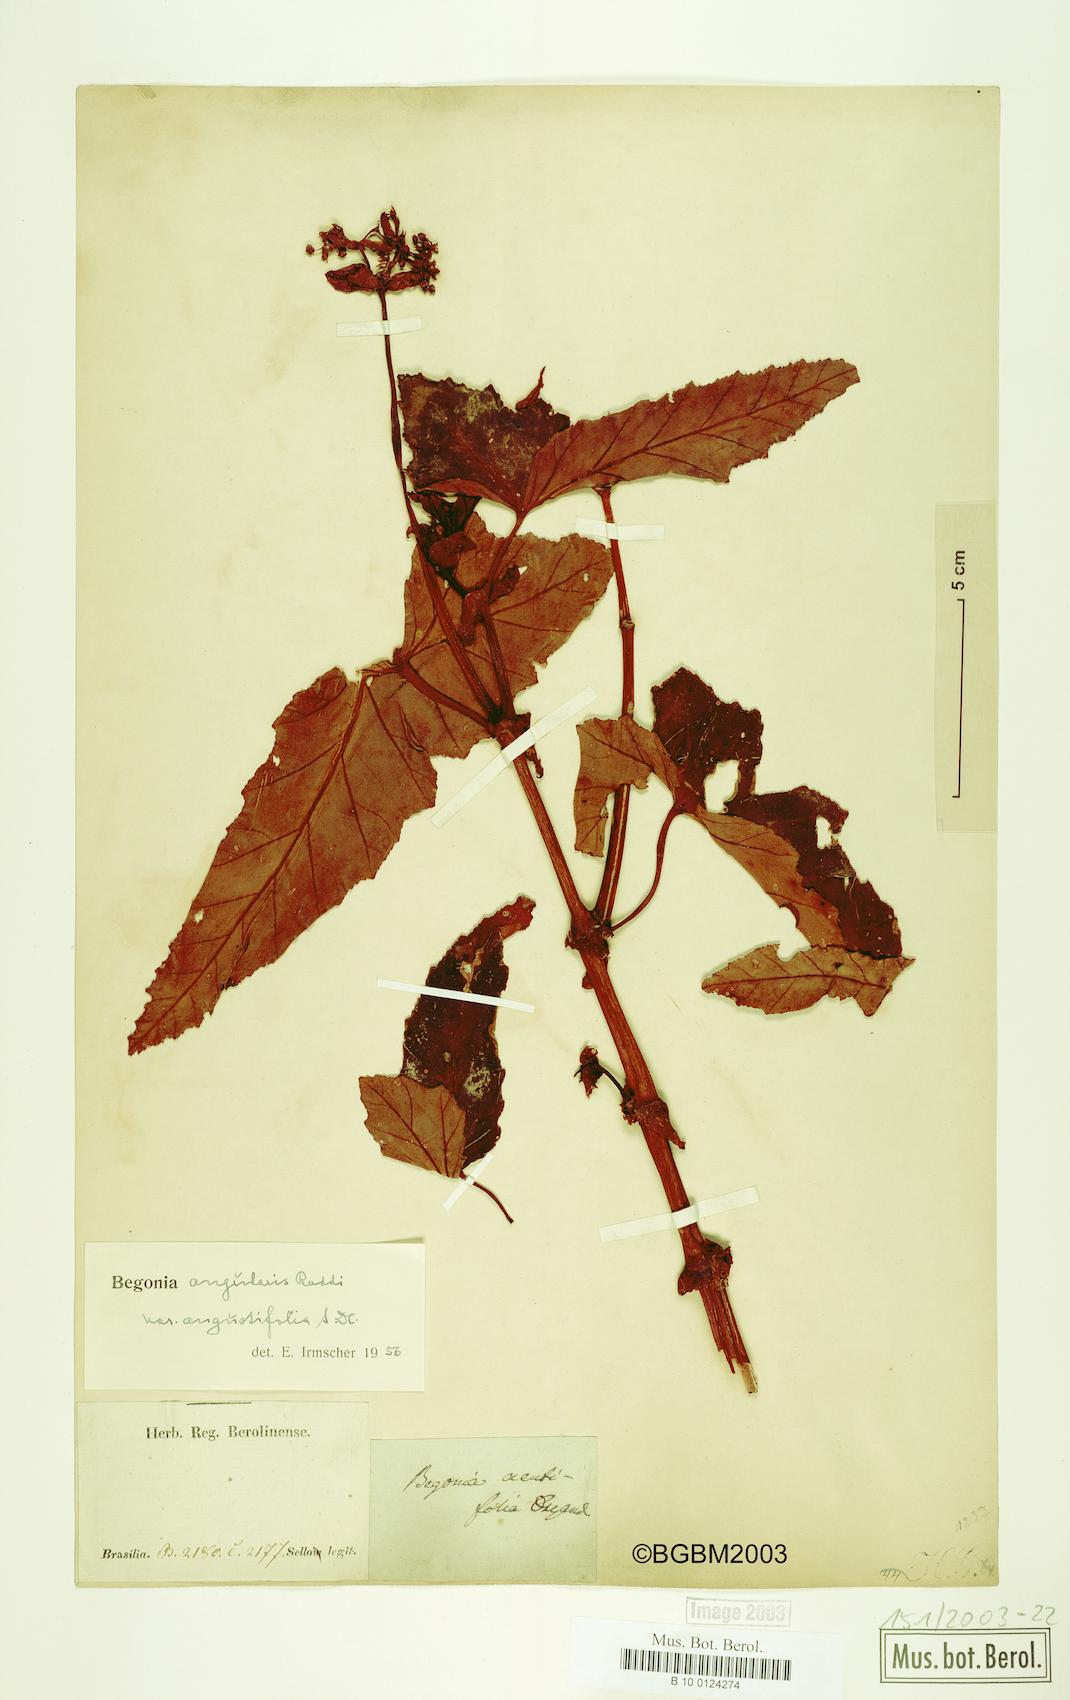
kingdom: Plantae
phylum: Tracheophyta
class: Magnoliopsida
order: Cucurbitales
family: Begoniaceae
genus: Begonia
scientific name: Begonia angularis
